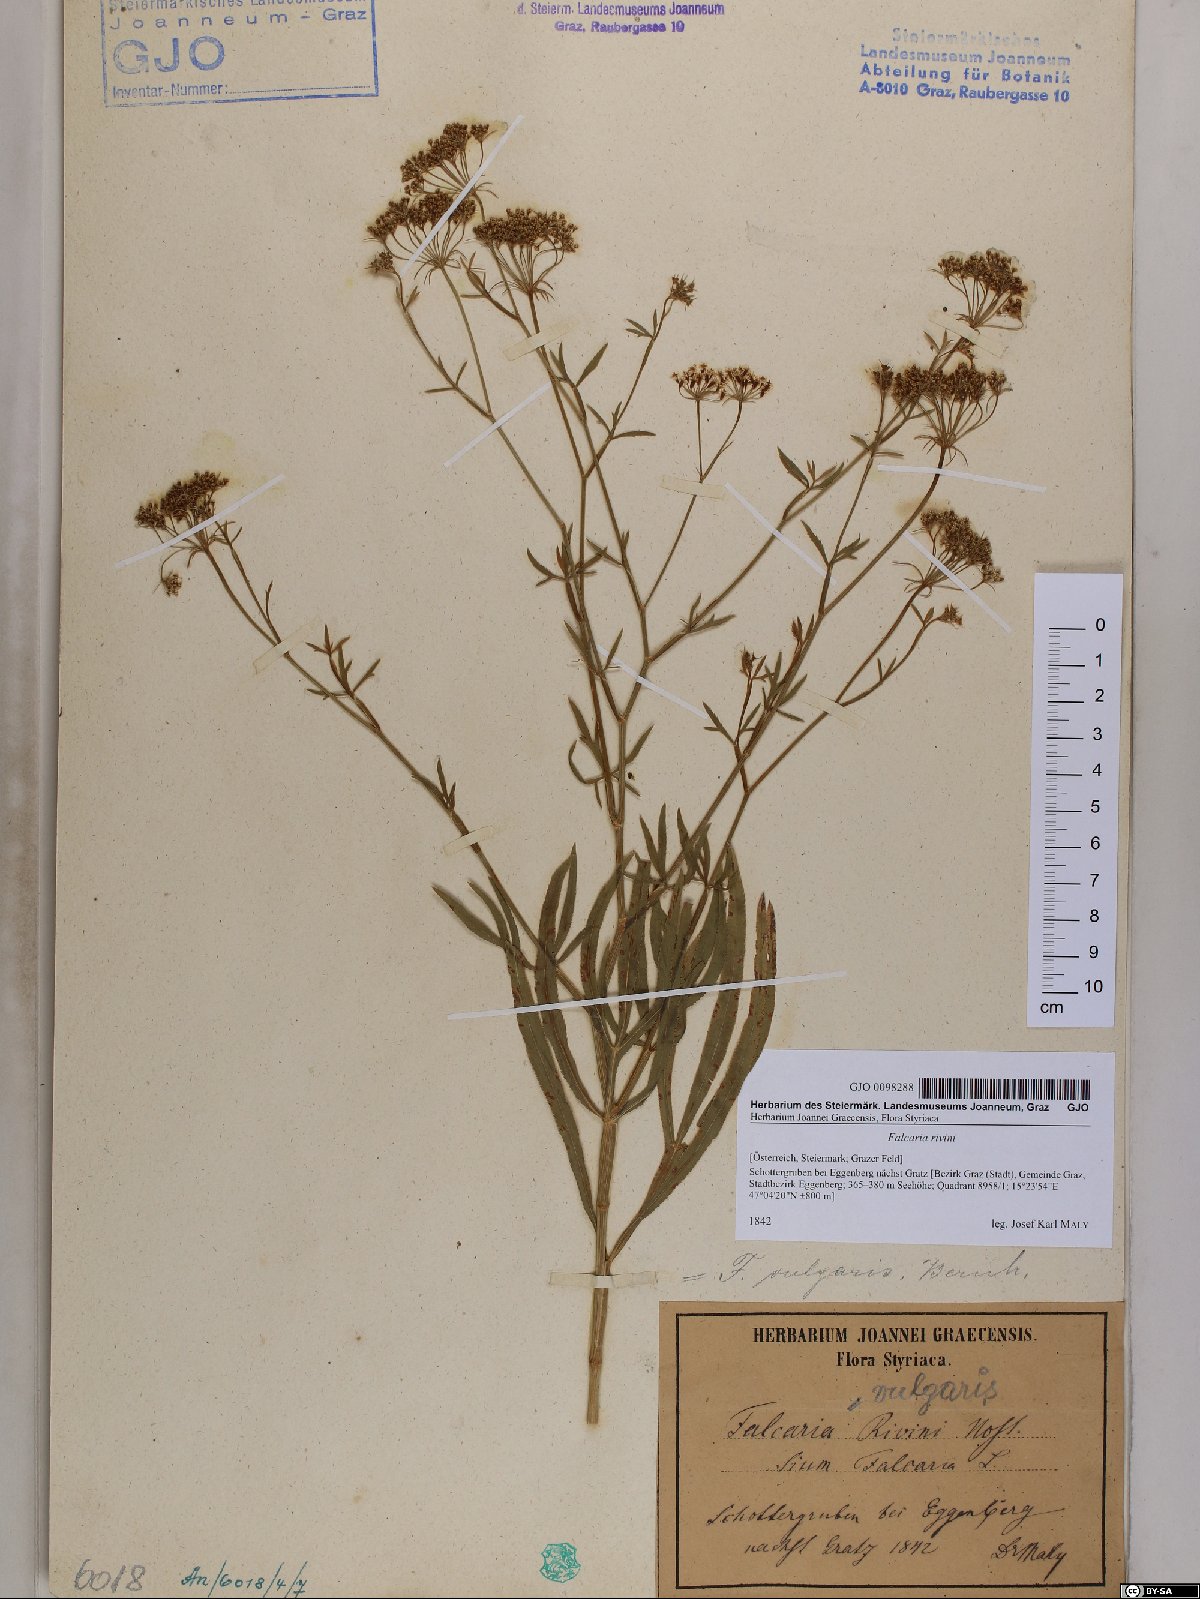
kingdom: Plantae
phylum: Tracheophyta
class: Magnoliopsida
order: Apiales
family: Apiaceae
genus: Falcaria
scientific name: Falcaria vulgaris
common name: Longleaf
